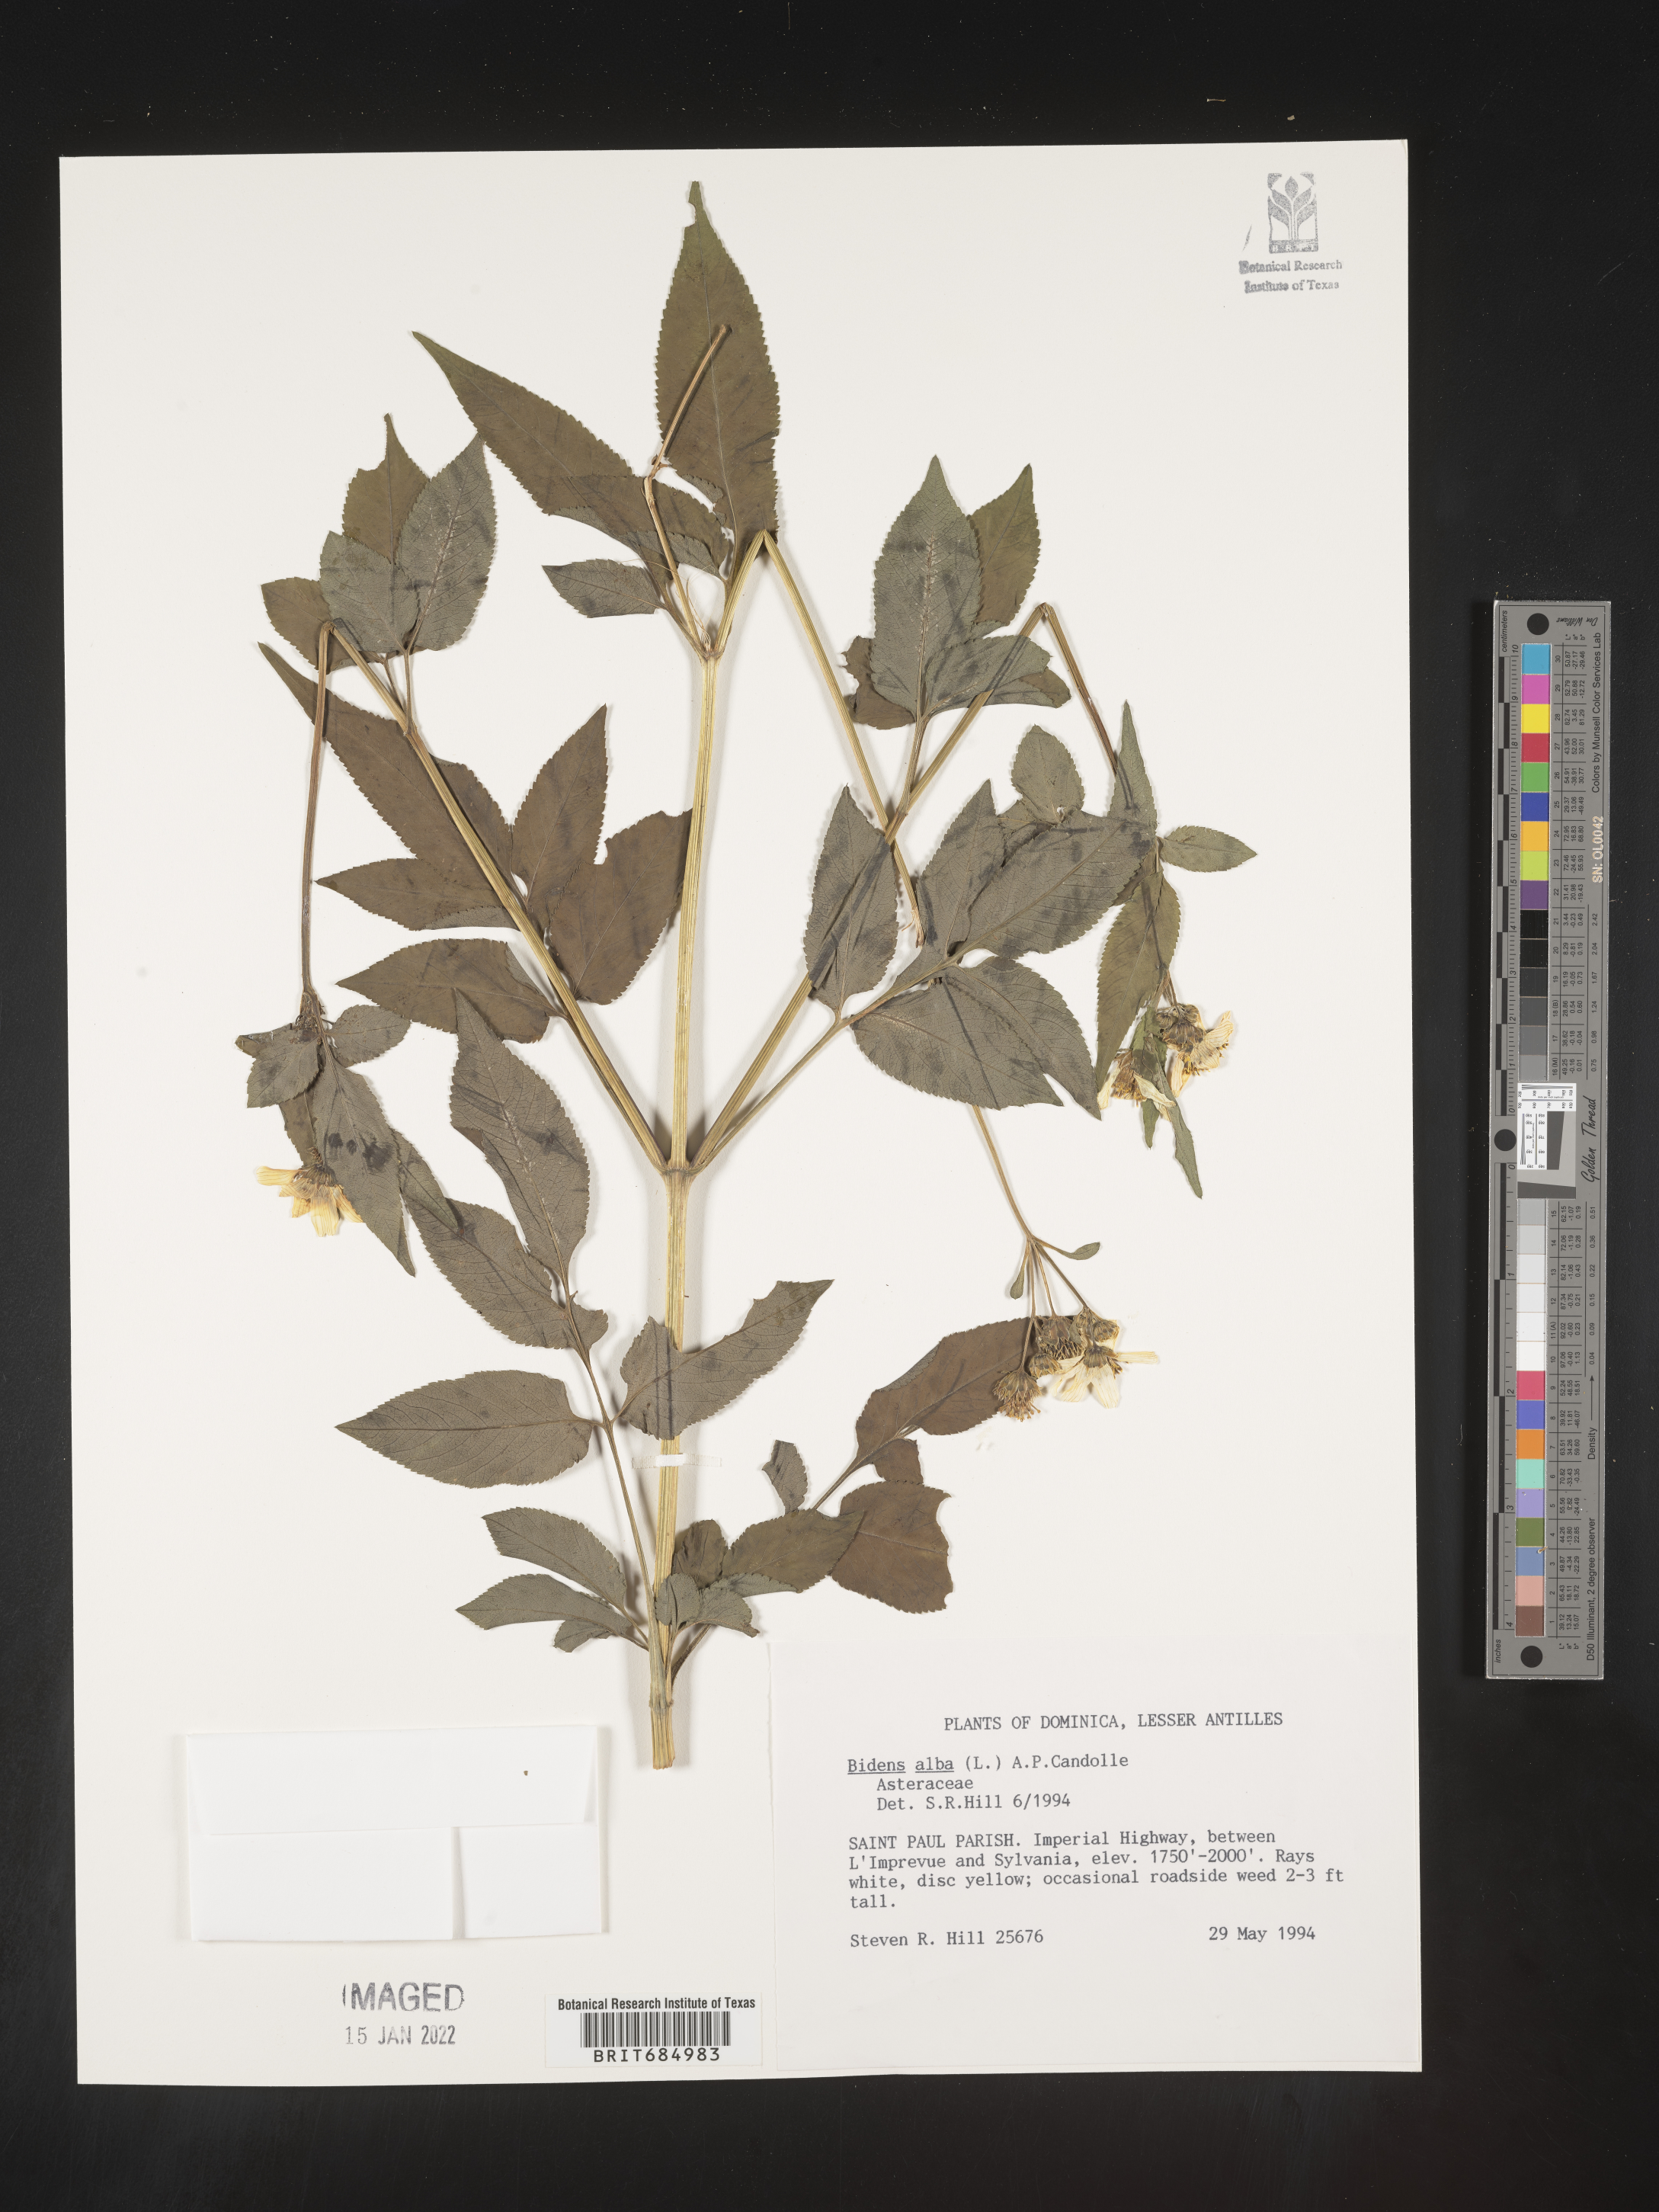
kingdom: Plantae
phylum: Tracheophyta
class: Magnoliopsida
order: Asterales
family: Asteraceae
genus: Bidens
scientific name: Bidens
